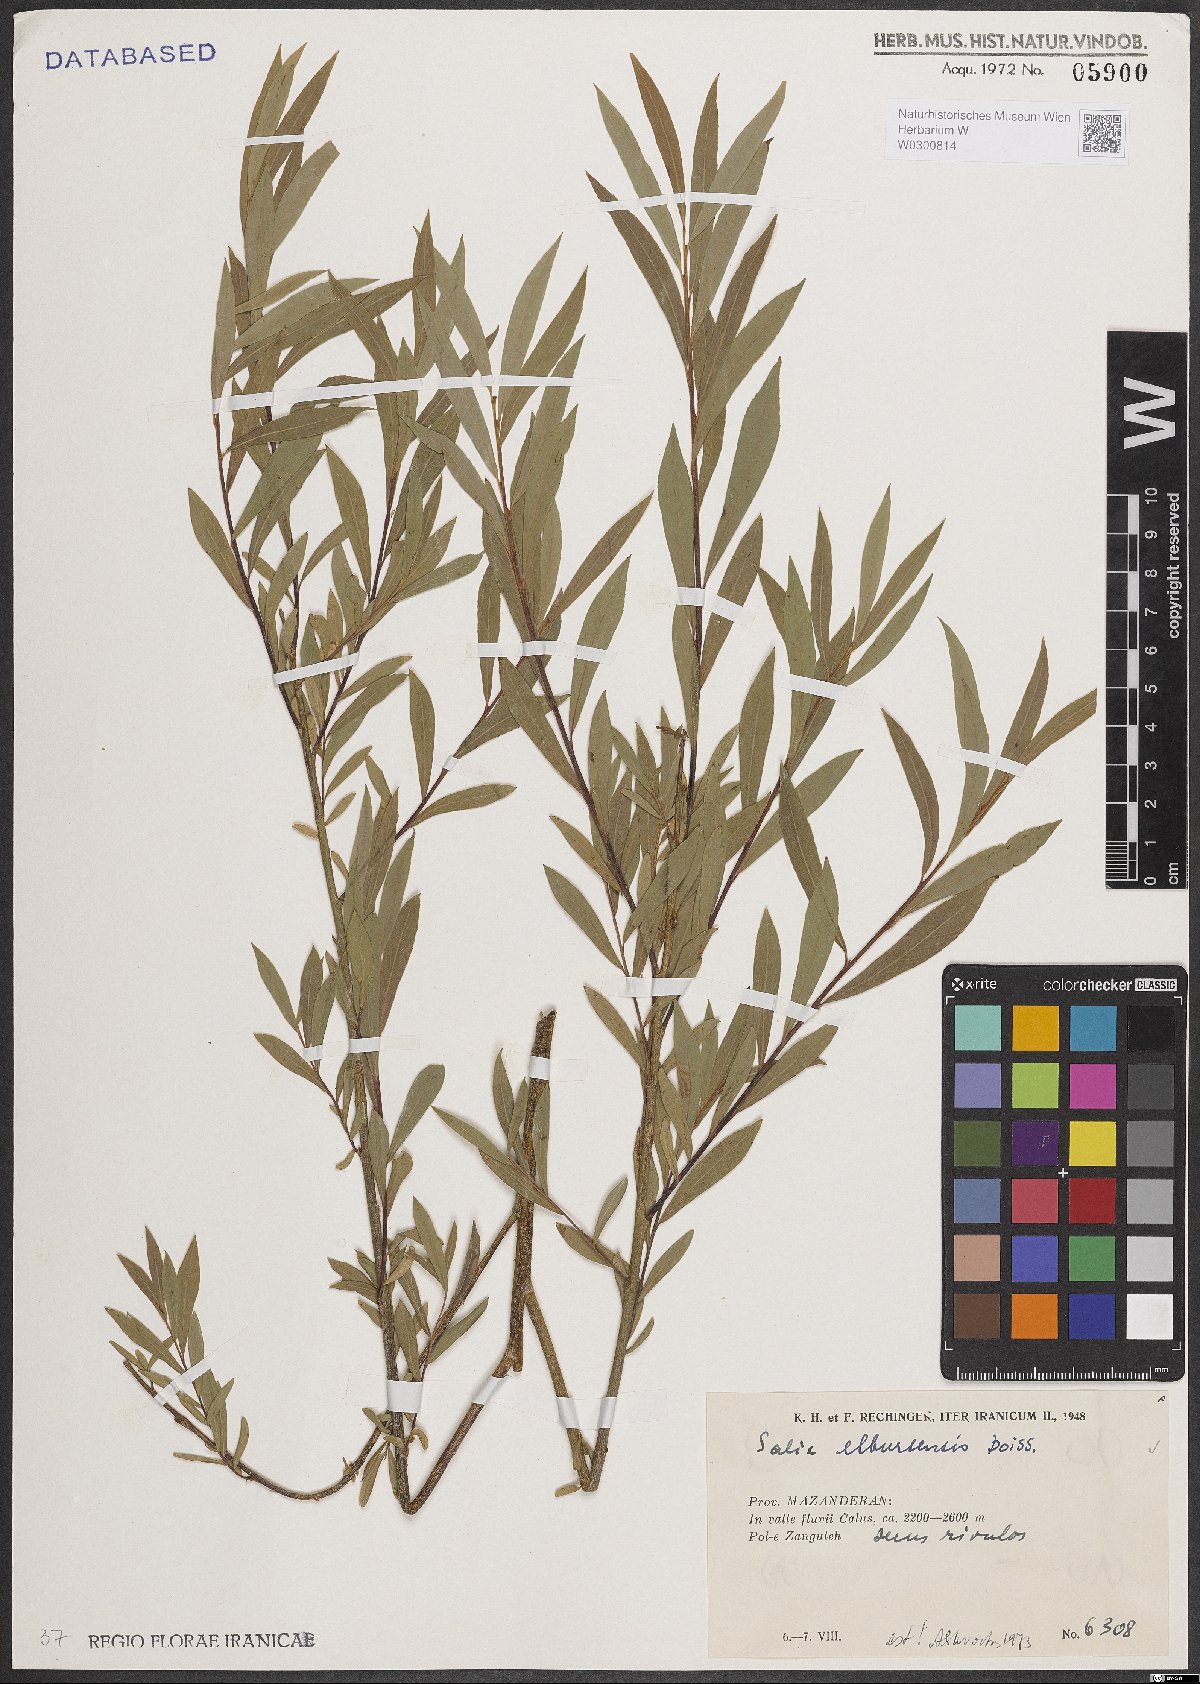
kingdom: Plantae
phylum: Tracheophyta
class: Magnoliopsida
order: Malpighiales
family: Salicaceae
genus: Salix
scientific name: Salix elbursensis
